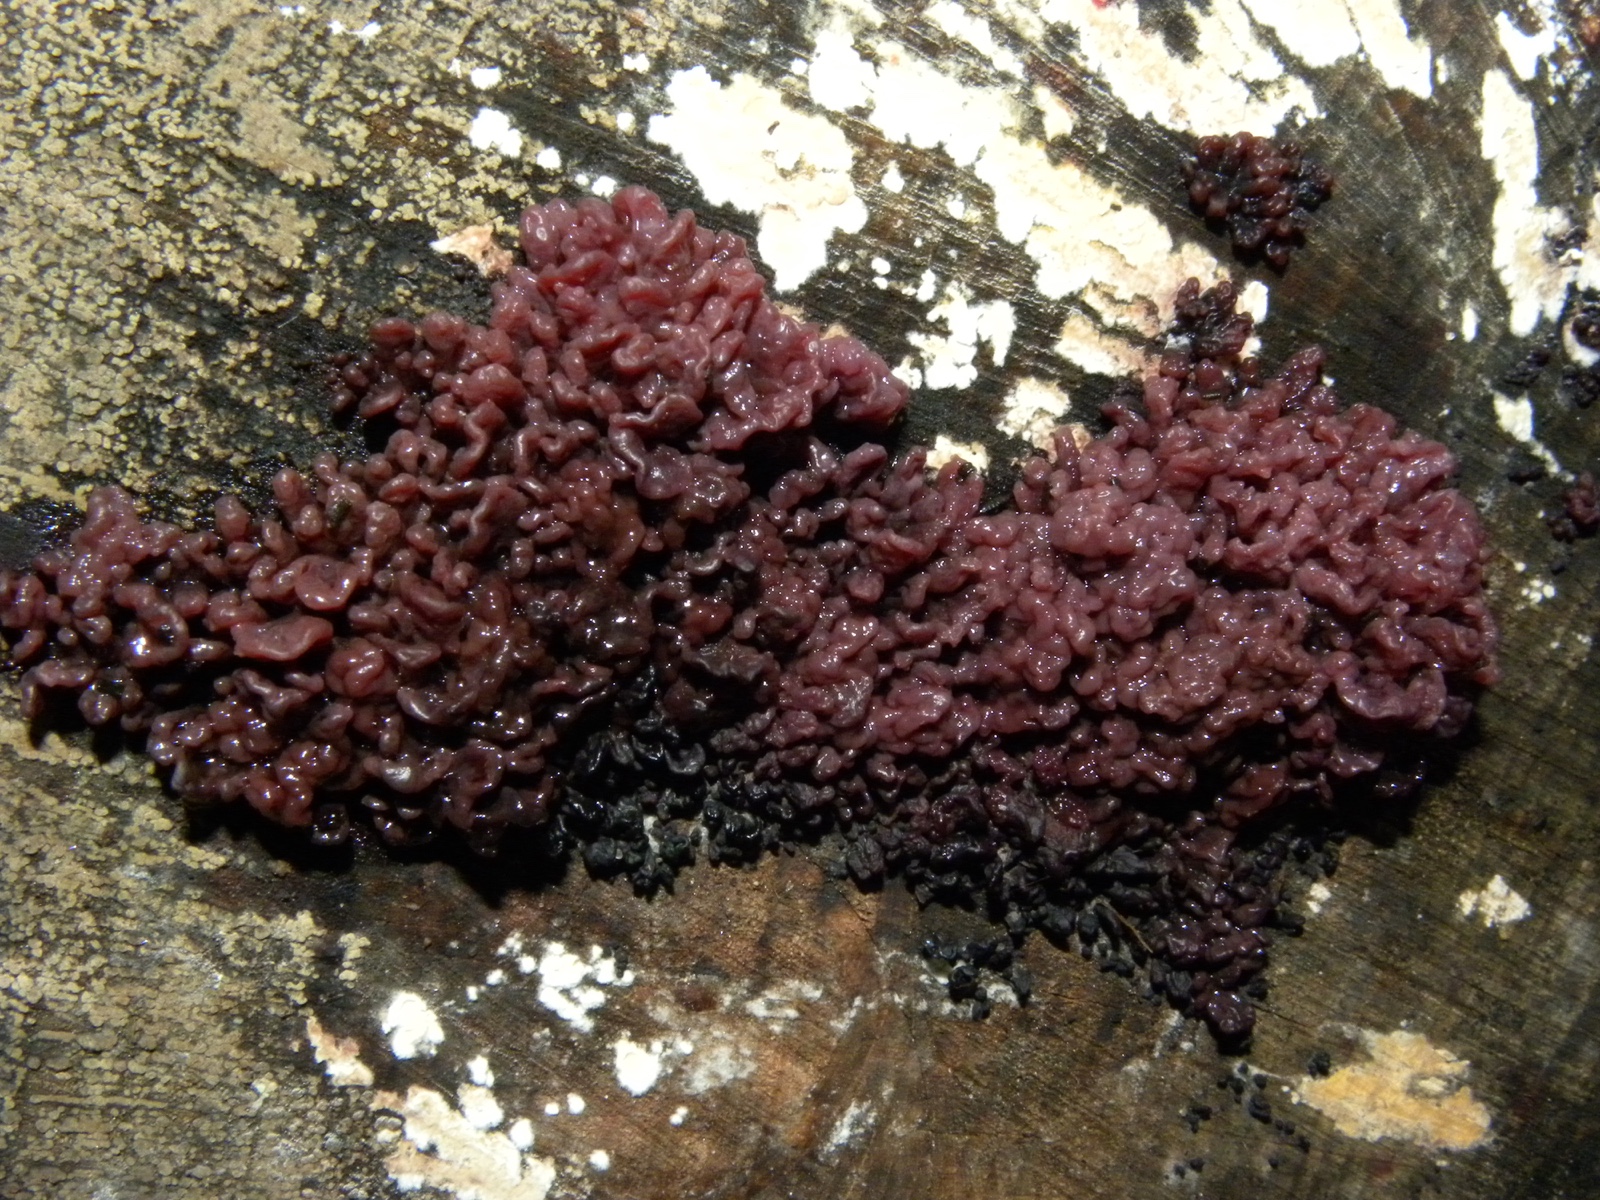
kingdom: Fungi
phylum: Ascomycota
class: Leotiomycetes
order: Helotiales
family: Gelatinodiscaceae
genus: Ascocoryne
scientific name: Ascocoryne sarcoides
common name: rødlilla sejskive
